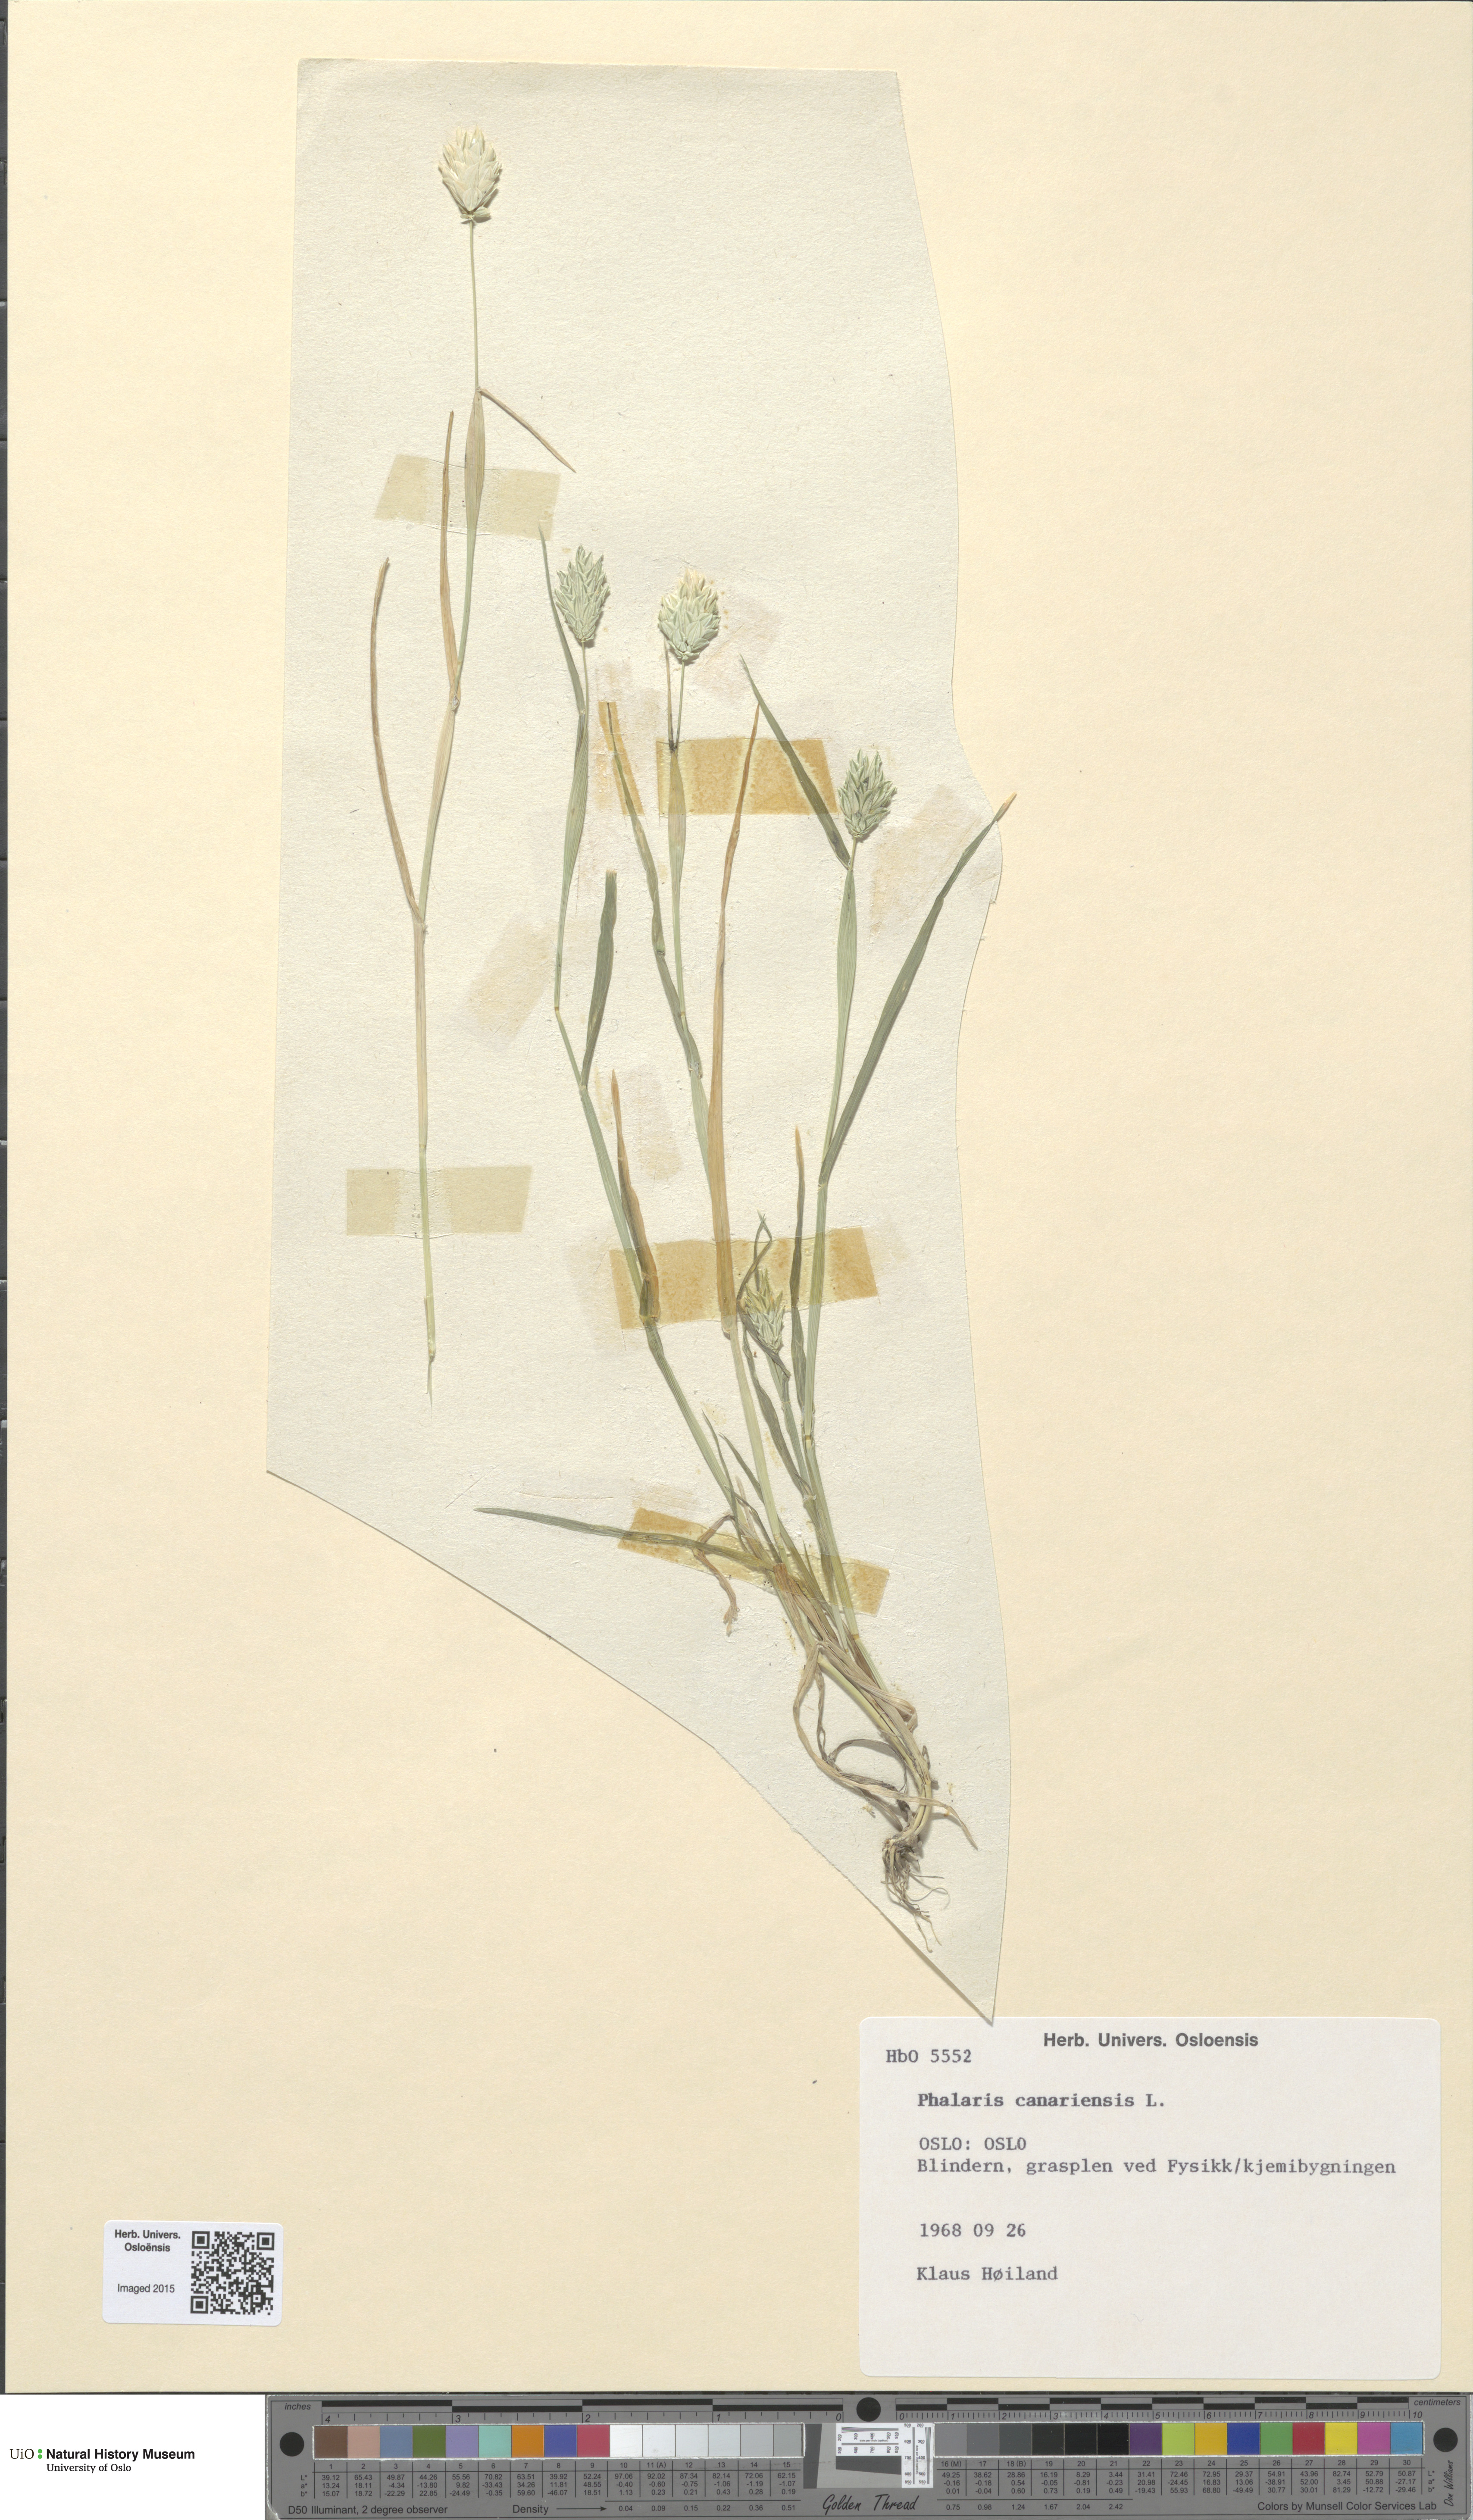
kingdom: Plantae
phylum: Tracheophyta
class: Liliopsida
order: Poales
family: Poaceae
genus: Phalaris
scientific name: Phalaris canariensis
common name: Annual canarygrass
